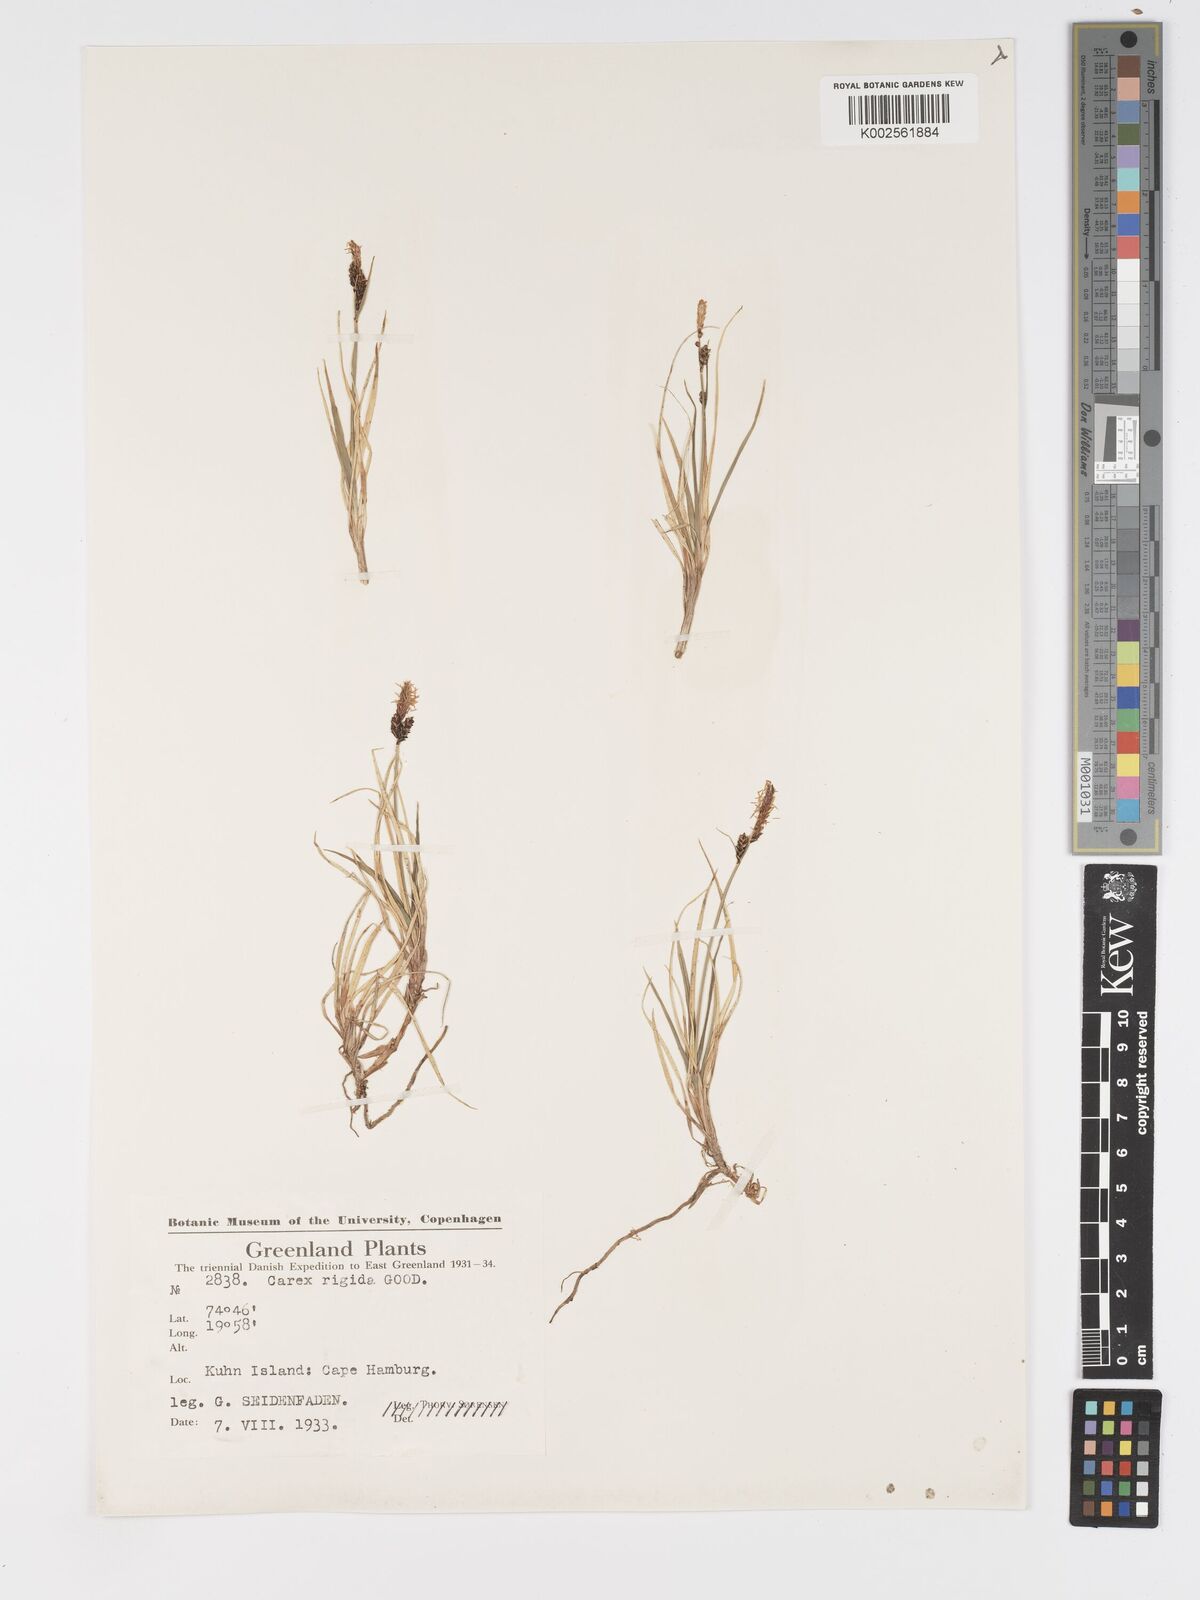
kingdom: Plantae
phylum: Tracheophyta
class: Liliopsida
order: Poales
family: Cyperaceae
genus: Carex
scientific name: Carex bigelowii
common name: Stiff sedge
